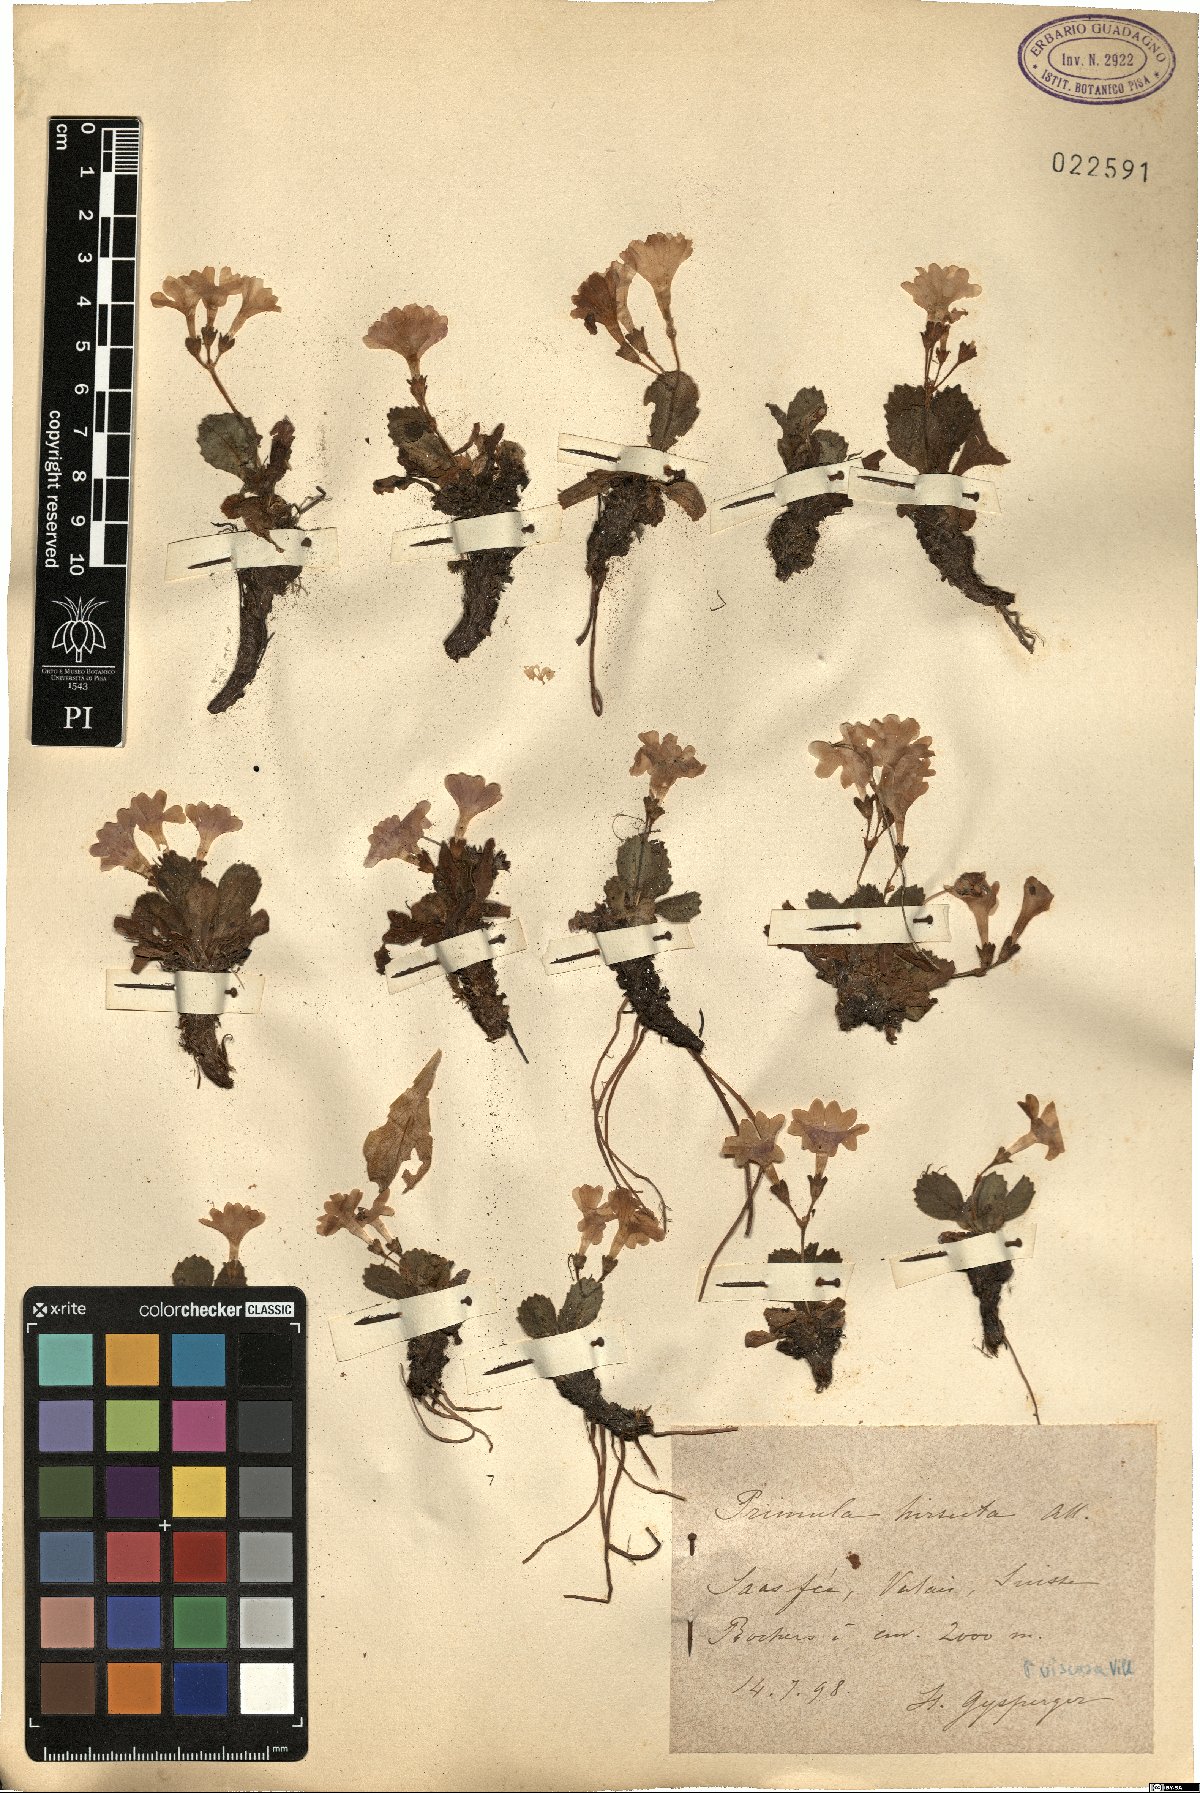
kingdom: Plantae
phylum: Tracheophyta
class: Magnoliopsida
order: Ericales
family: Primulaceae
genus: Primula
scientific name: Primula hirsuta
